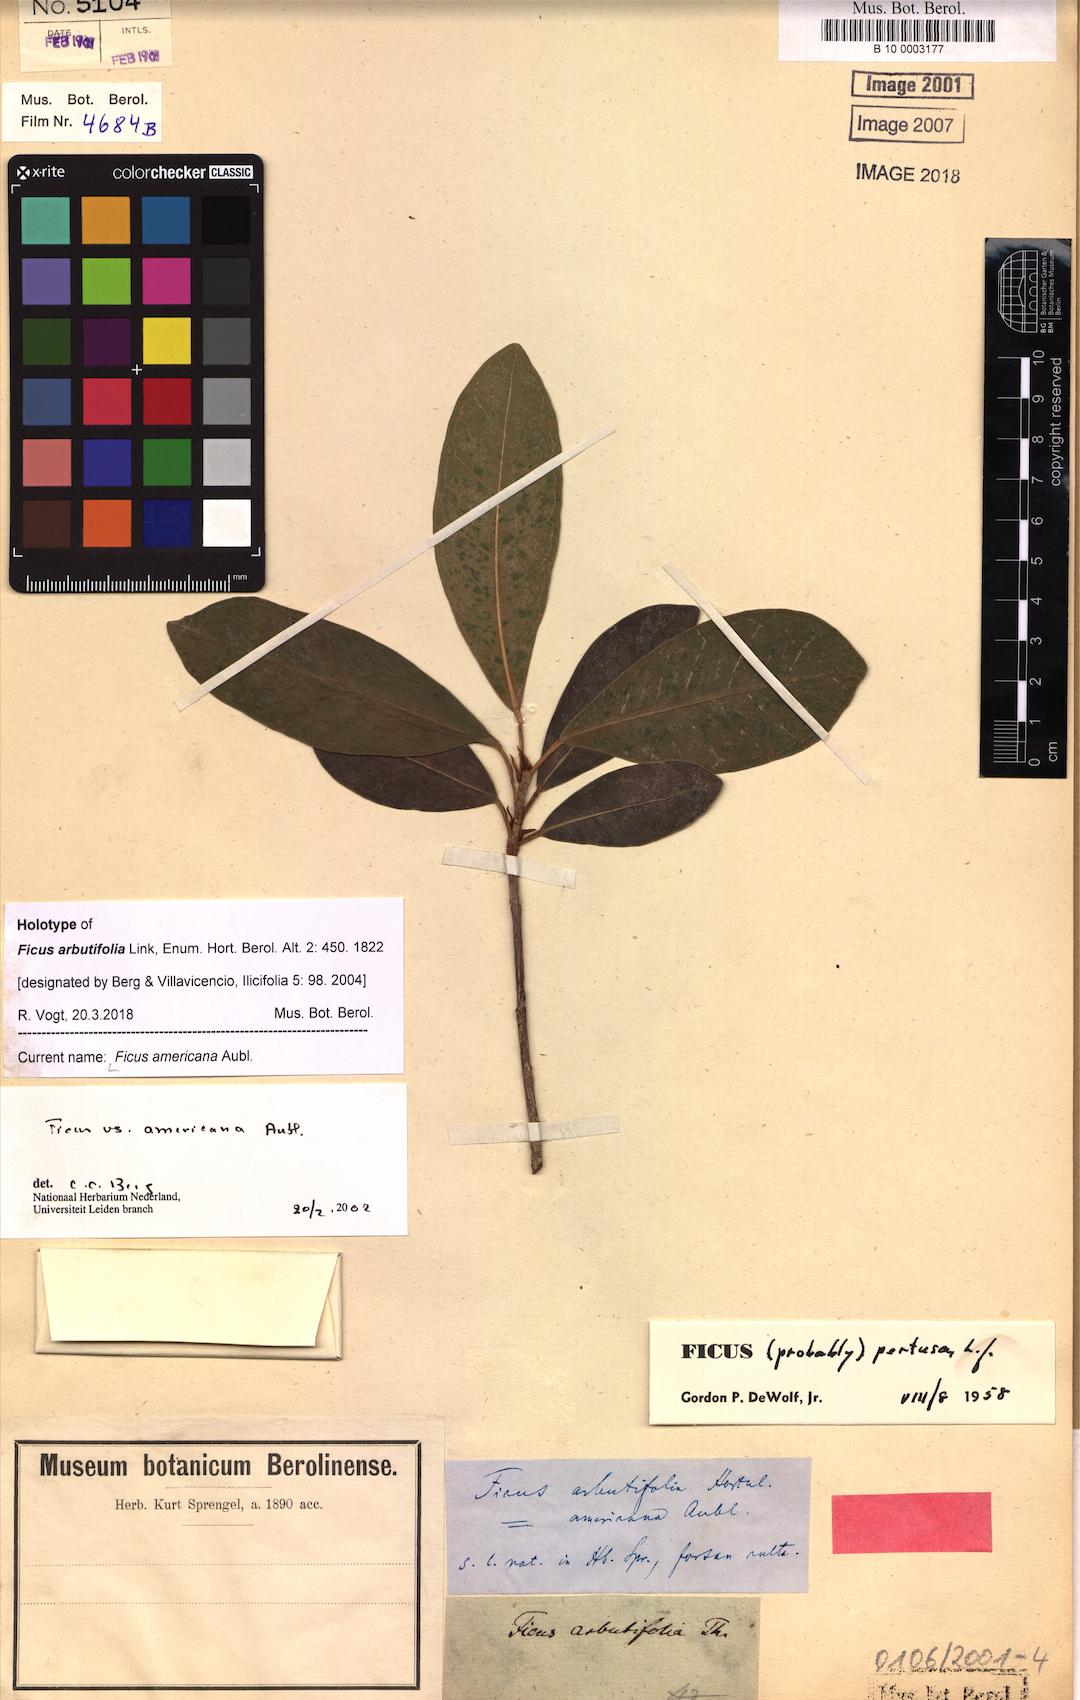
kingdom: Plantae
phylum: Tracheophyta
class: Magnoliopsida
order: Rosales
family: Moraceae
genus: Ficus
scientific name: Ficus americana
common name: Jamaican cherry fig
